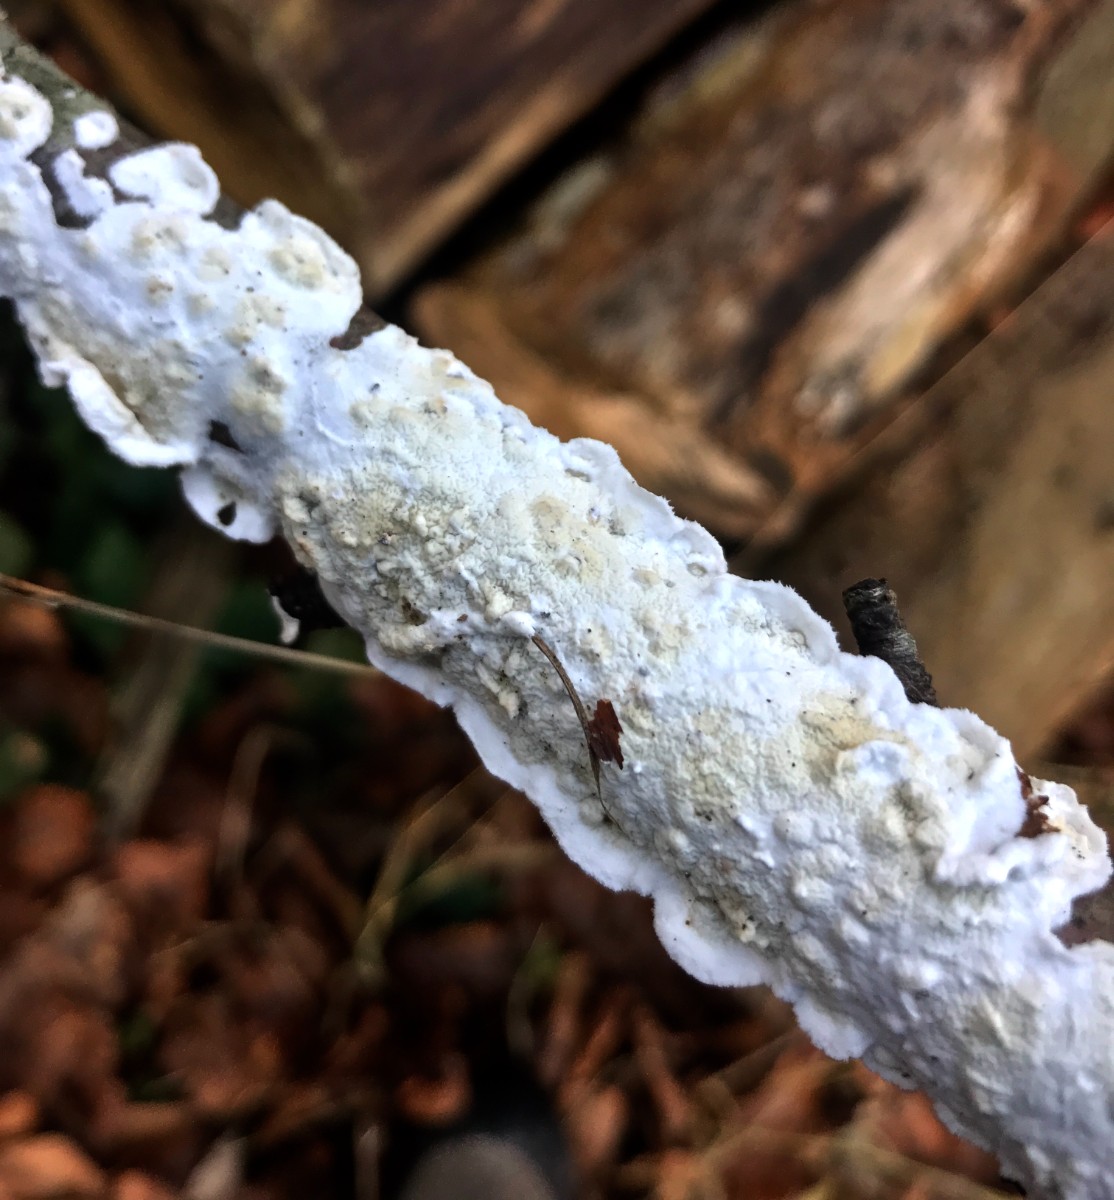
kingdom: Fungi
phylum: Basidiomycota
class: Agaricomycetes
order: Polyporales
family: Irpicaceae
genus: Byssomerulius
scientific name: Byssomerulius corium
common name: læder-åresvamp
